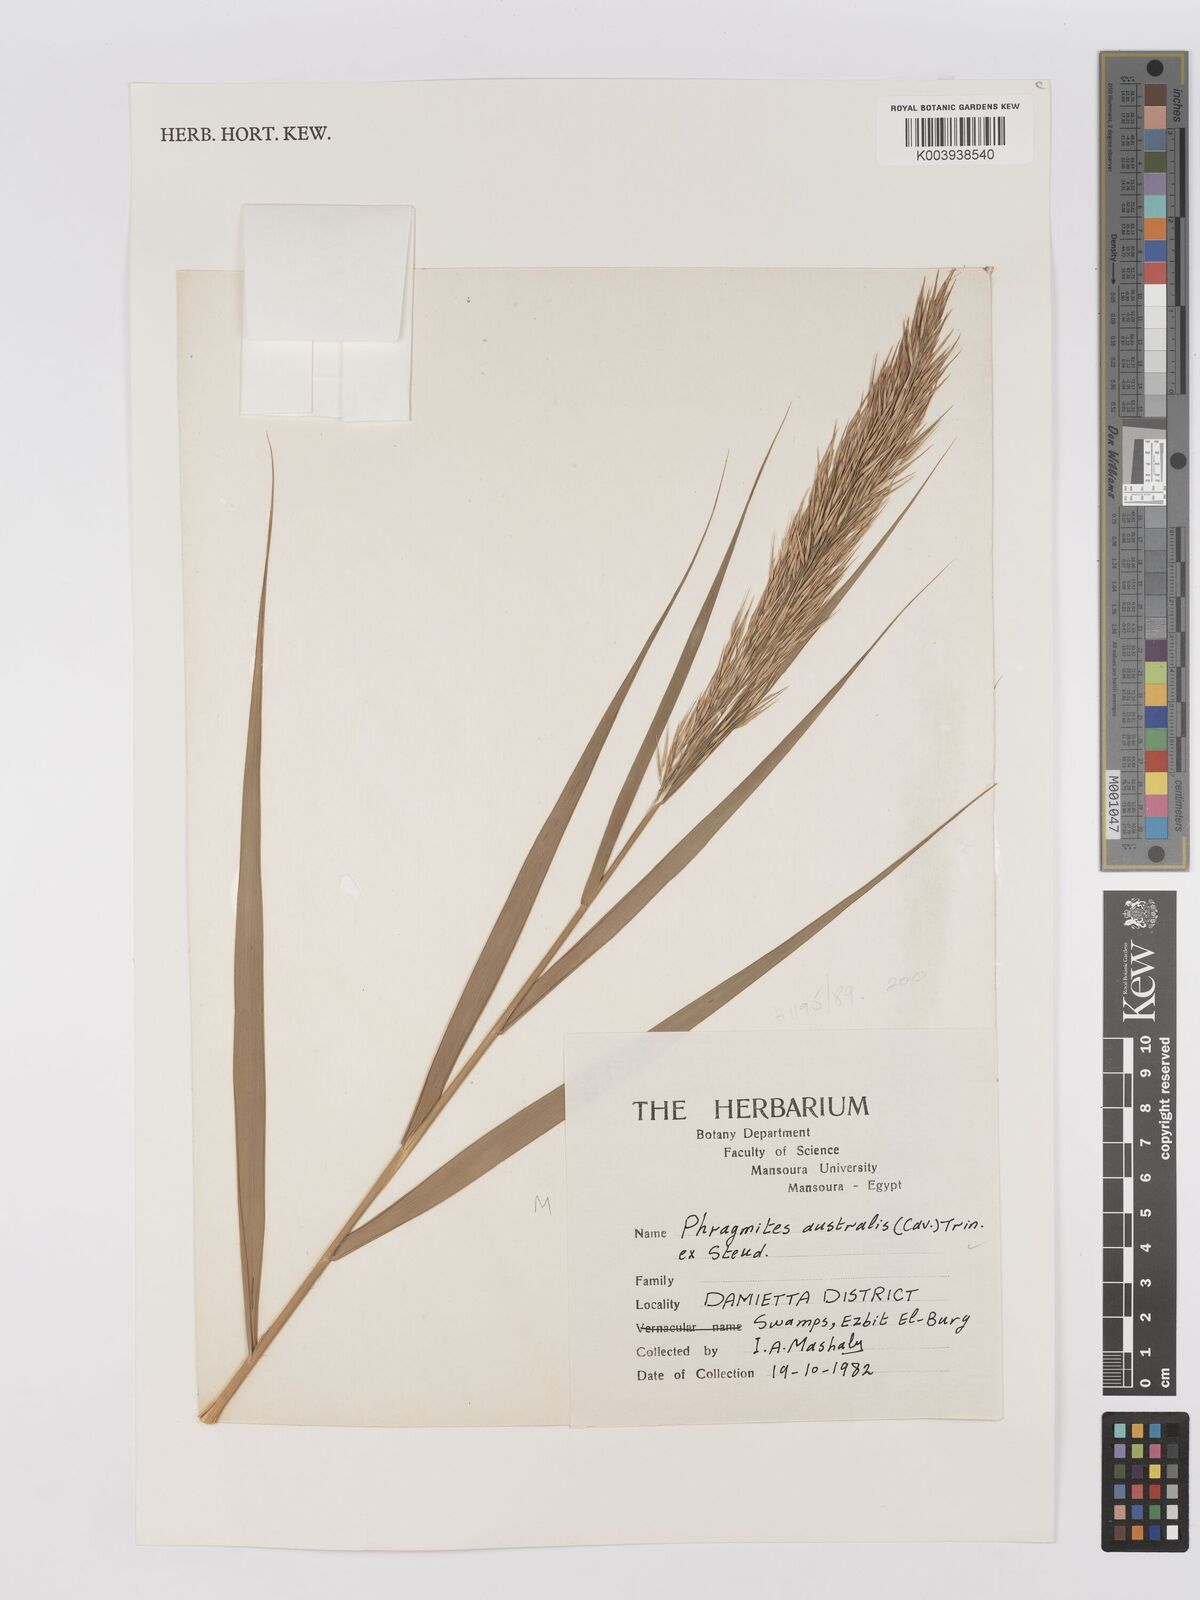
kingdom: Plantae
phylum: Tracheophyta
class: Liliopsida
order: Poales
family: Poaceae
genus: Phragmites
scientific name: Phragmites australis
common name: Common reed
